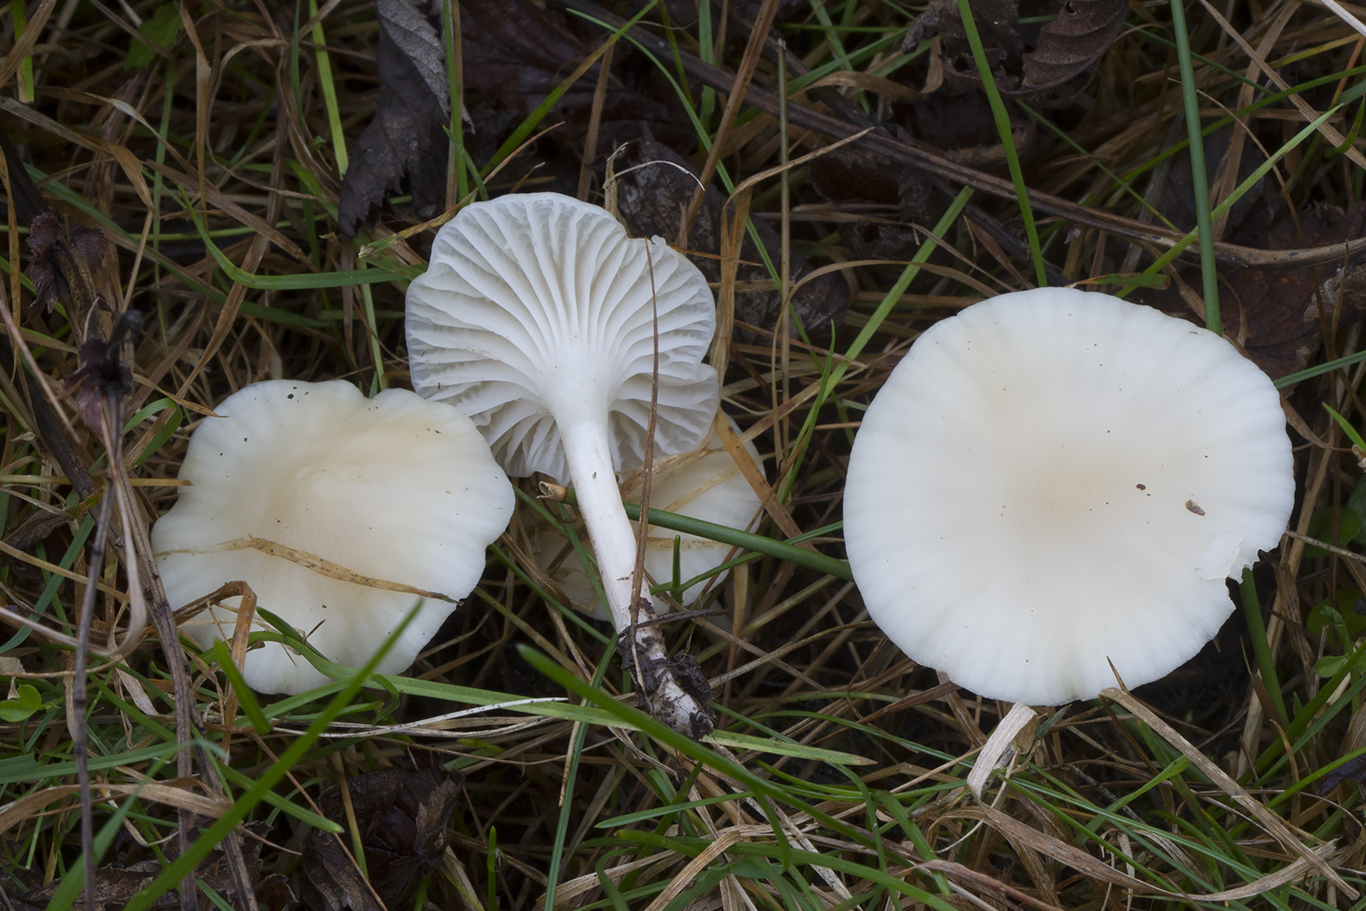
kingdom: Fungi
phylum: Basidiomycota
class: Agaricomycetes
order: Agaricales
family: Hygrophoraceae
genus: Cuphophyllus
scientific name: Cuphophyllus virgineus
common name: snehvid vokshat
